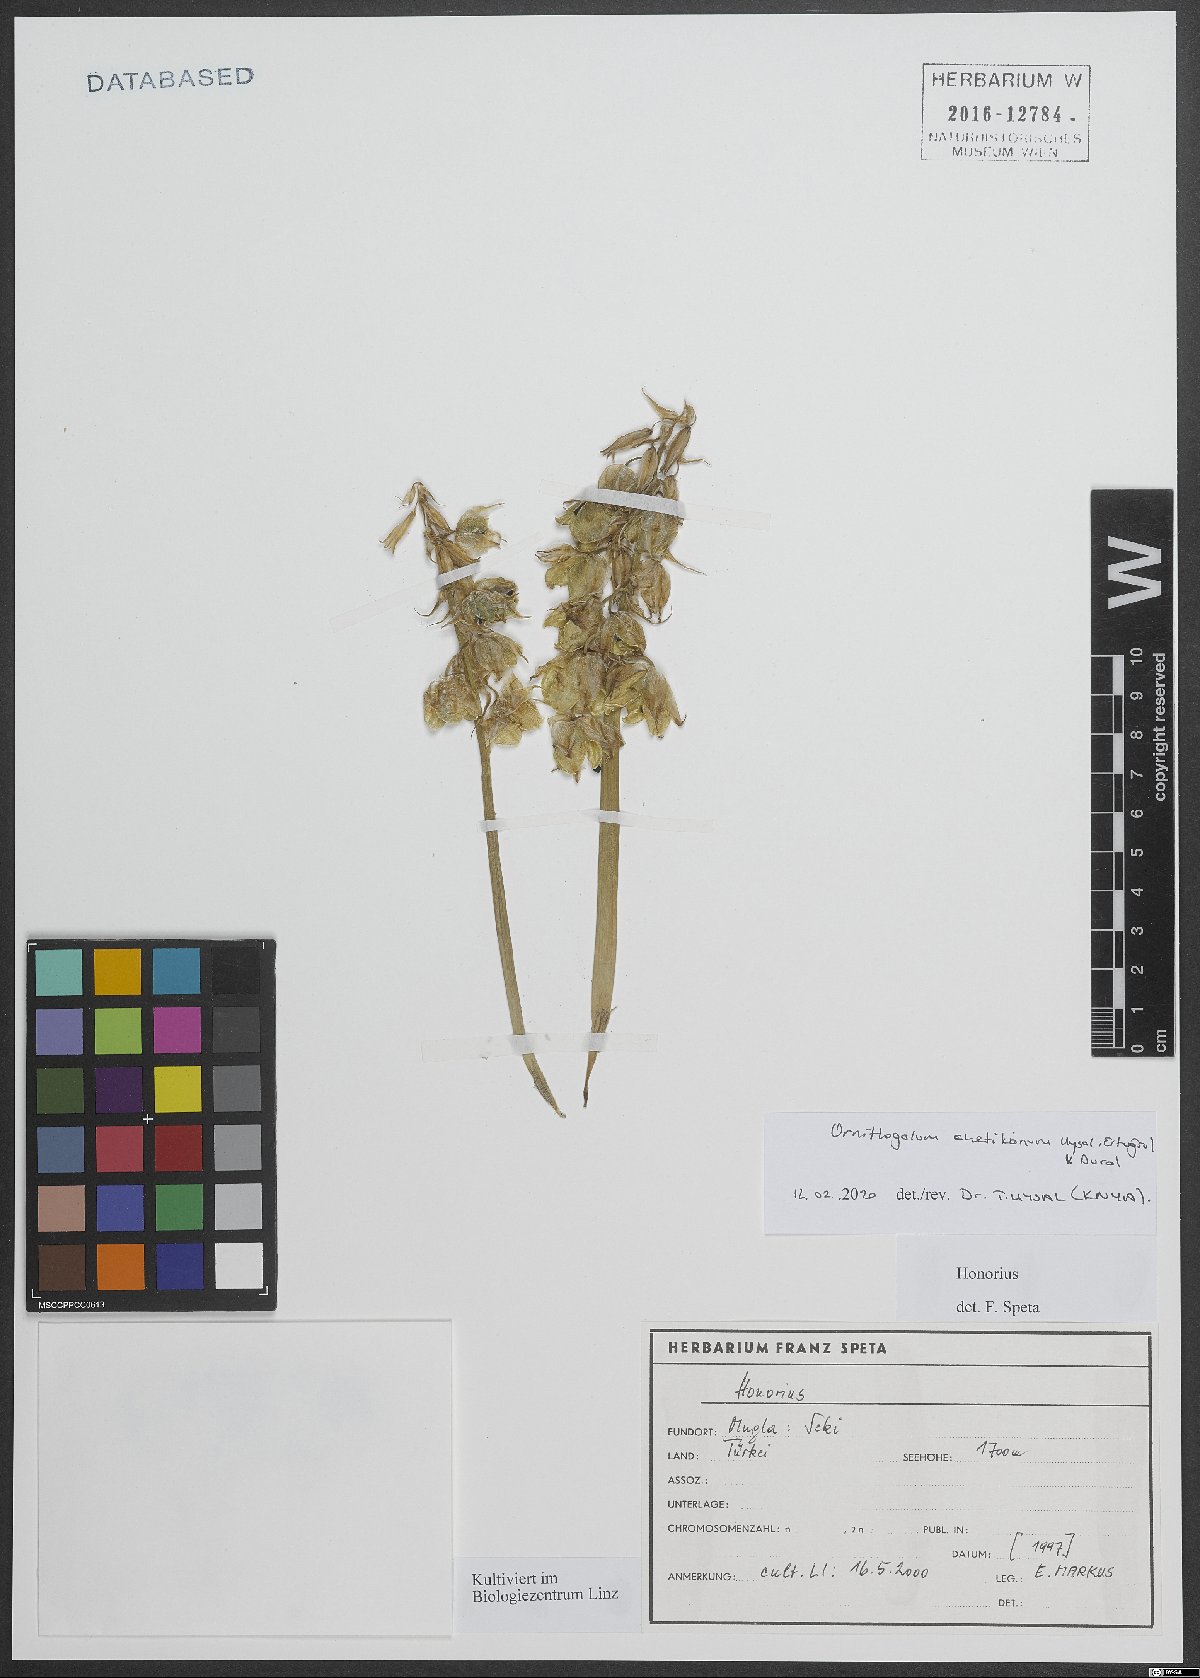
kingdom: Plantae
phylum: Tracheophyta
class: Liliopsida
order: Asparagales
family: Asparagaceae
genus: Ornithogalum
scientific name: Ornithogalum chetikianum
